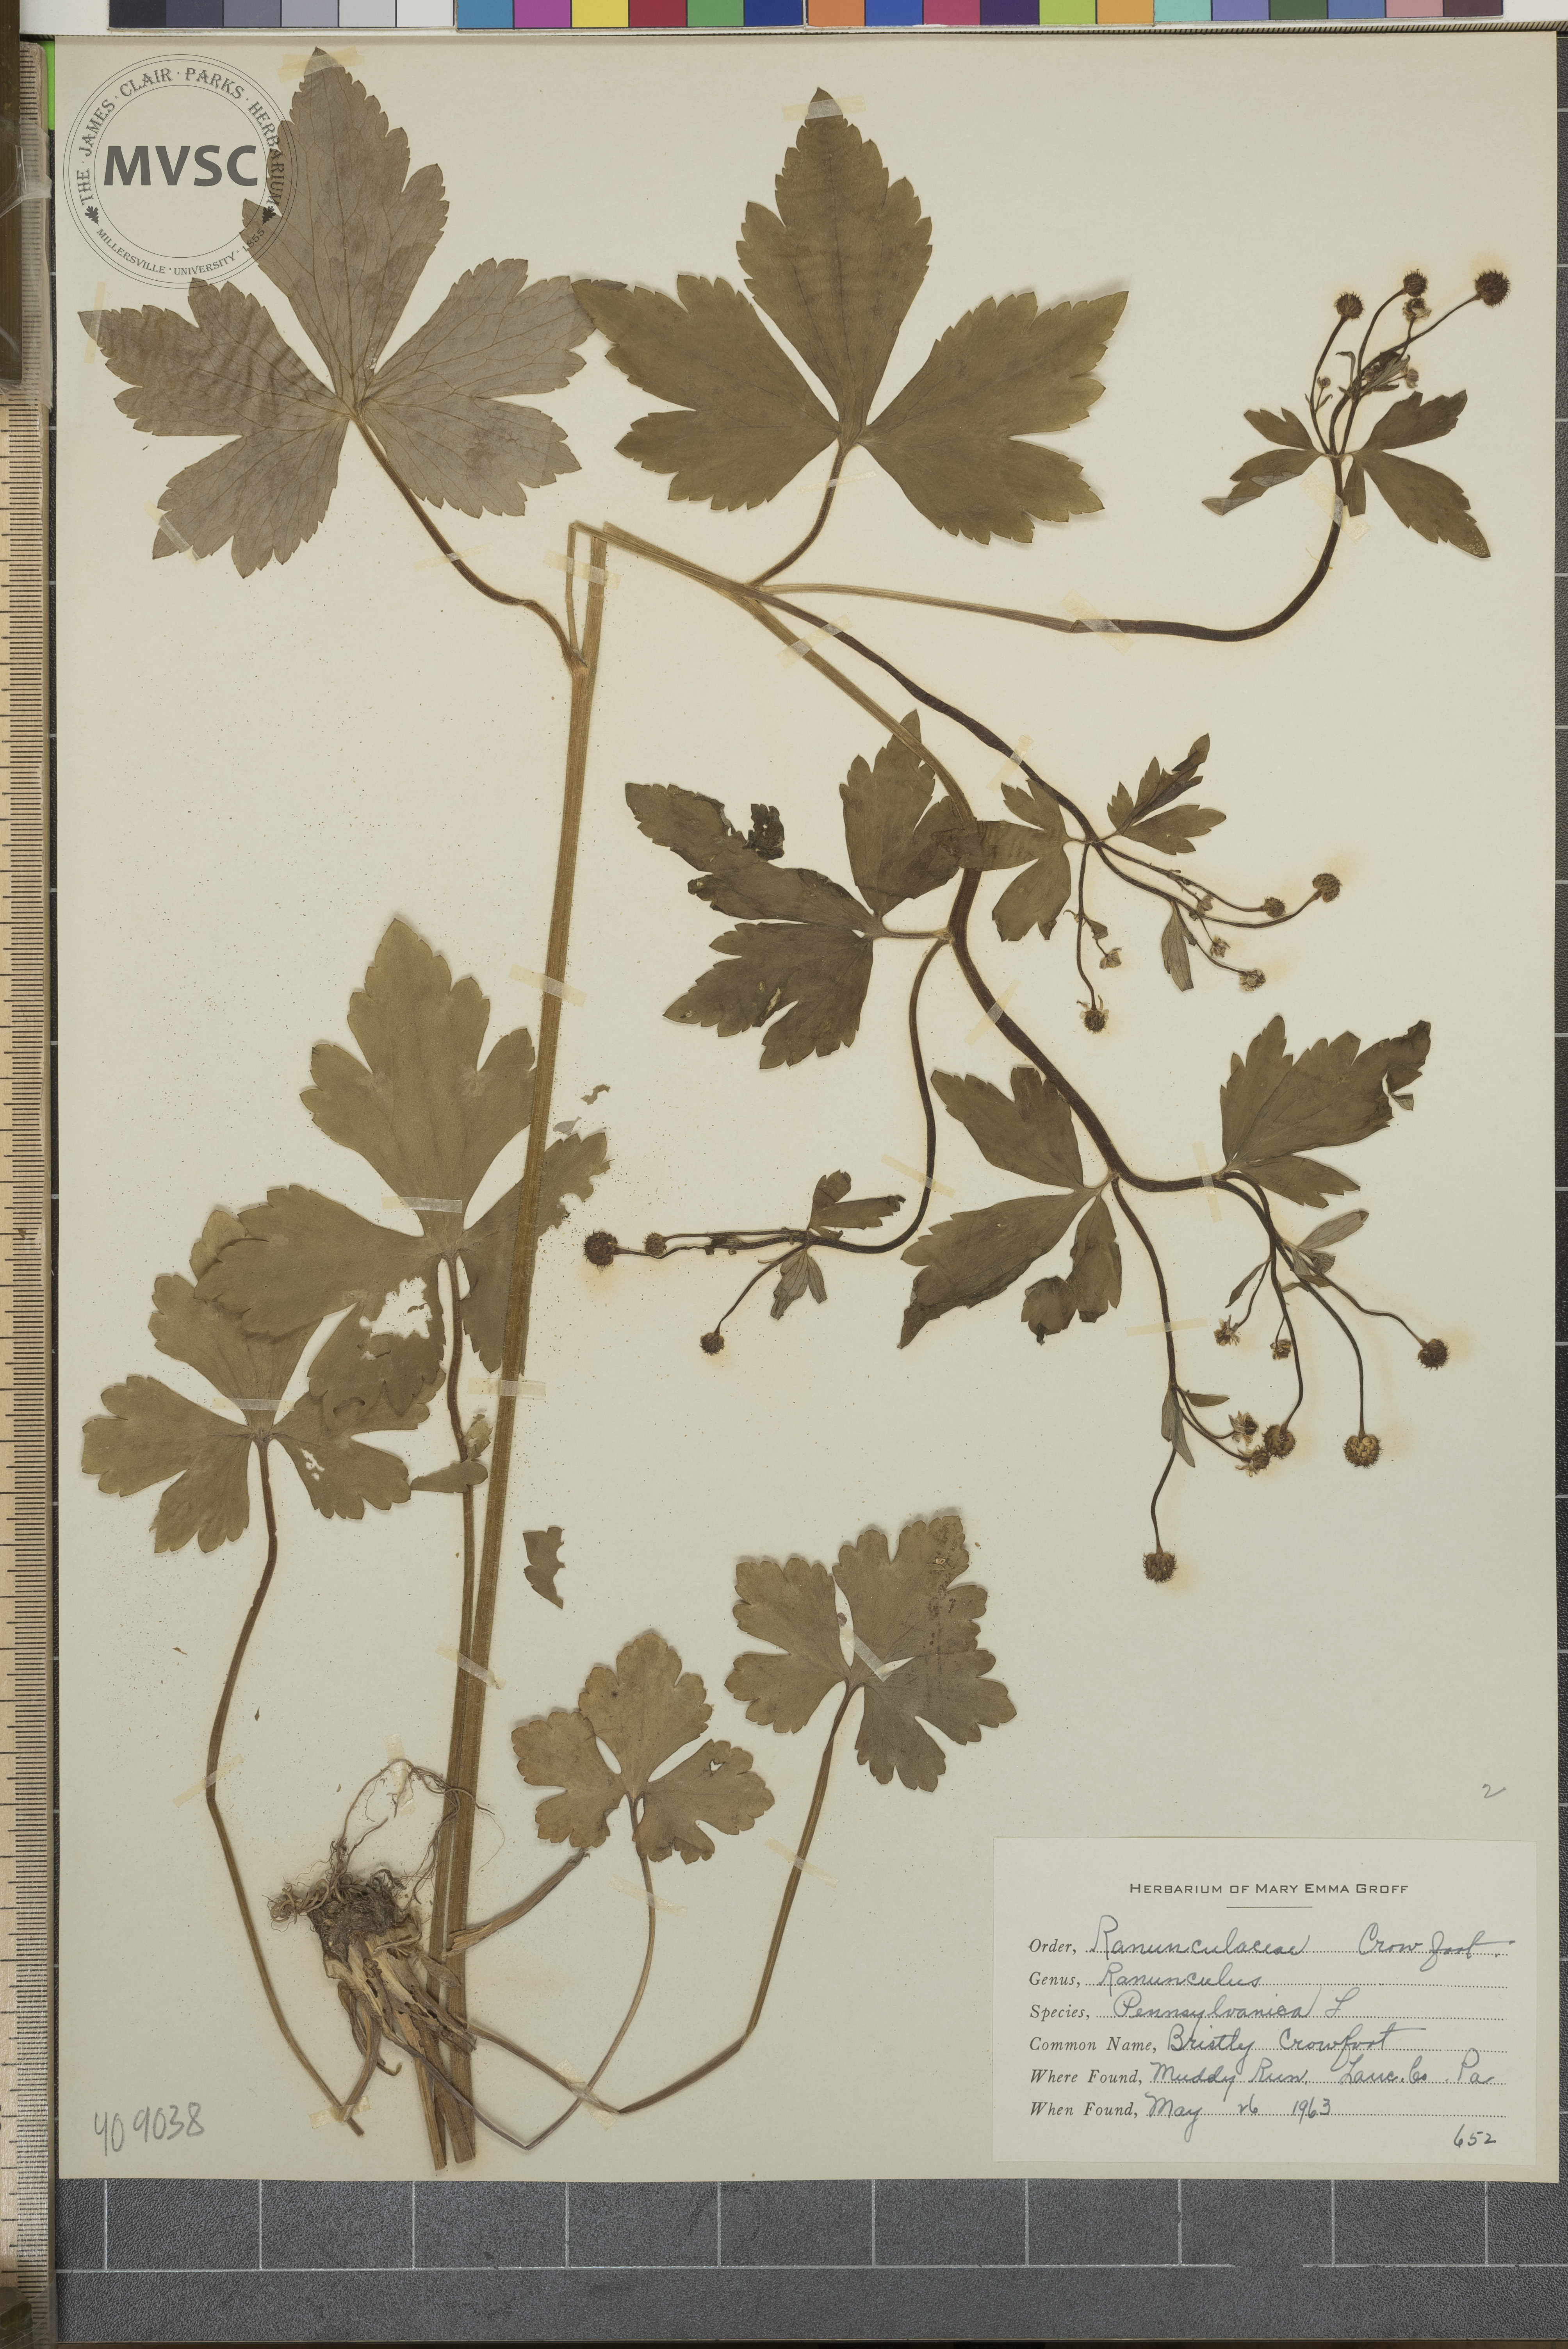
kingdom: Plantae
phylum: Tracheophyta
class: Magnoliopsida
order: Ranunculales
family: Ranunculaceae
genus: Ranunculus
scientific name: Ranunculus pensylvanicus
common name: bristly crowfoot
